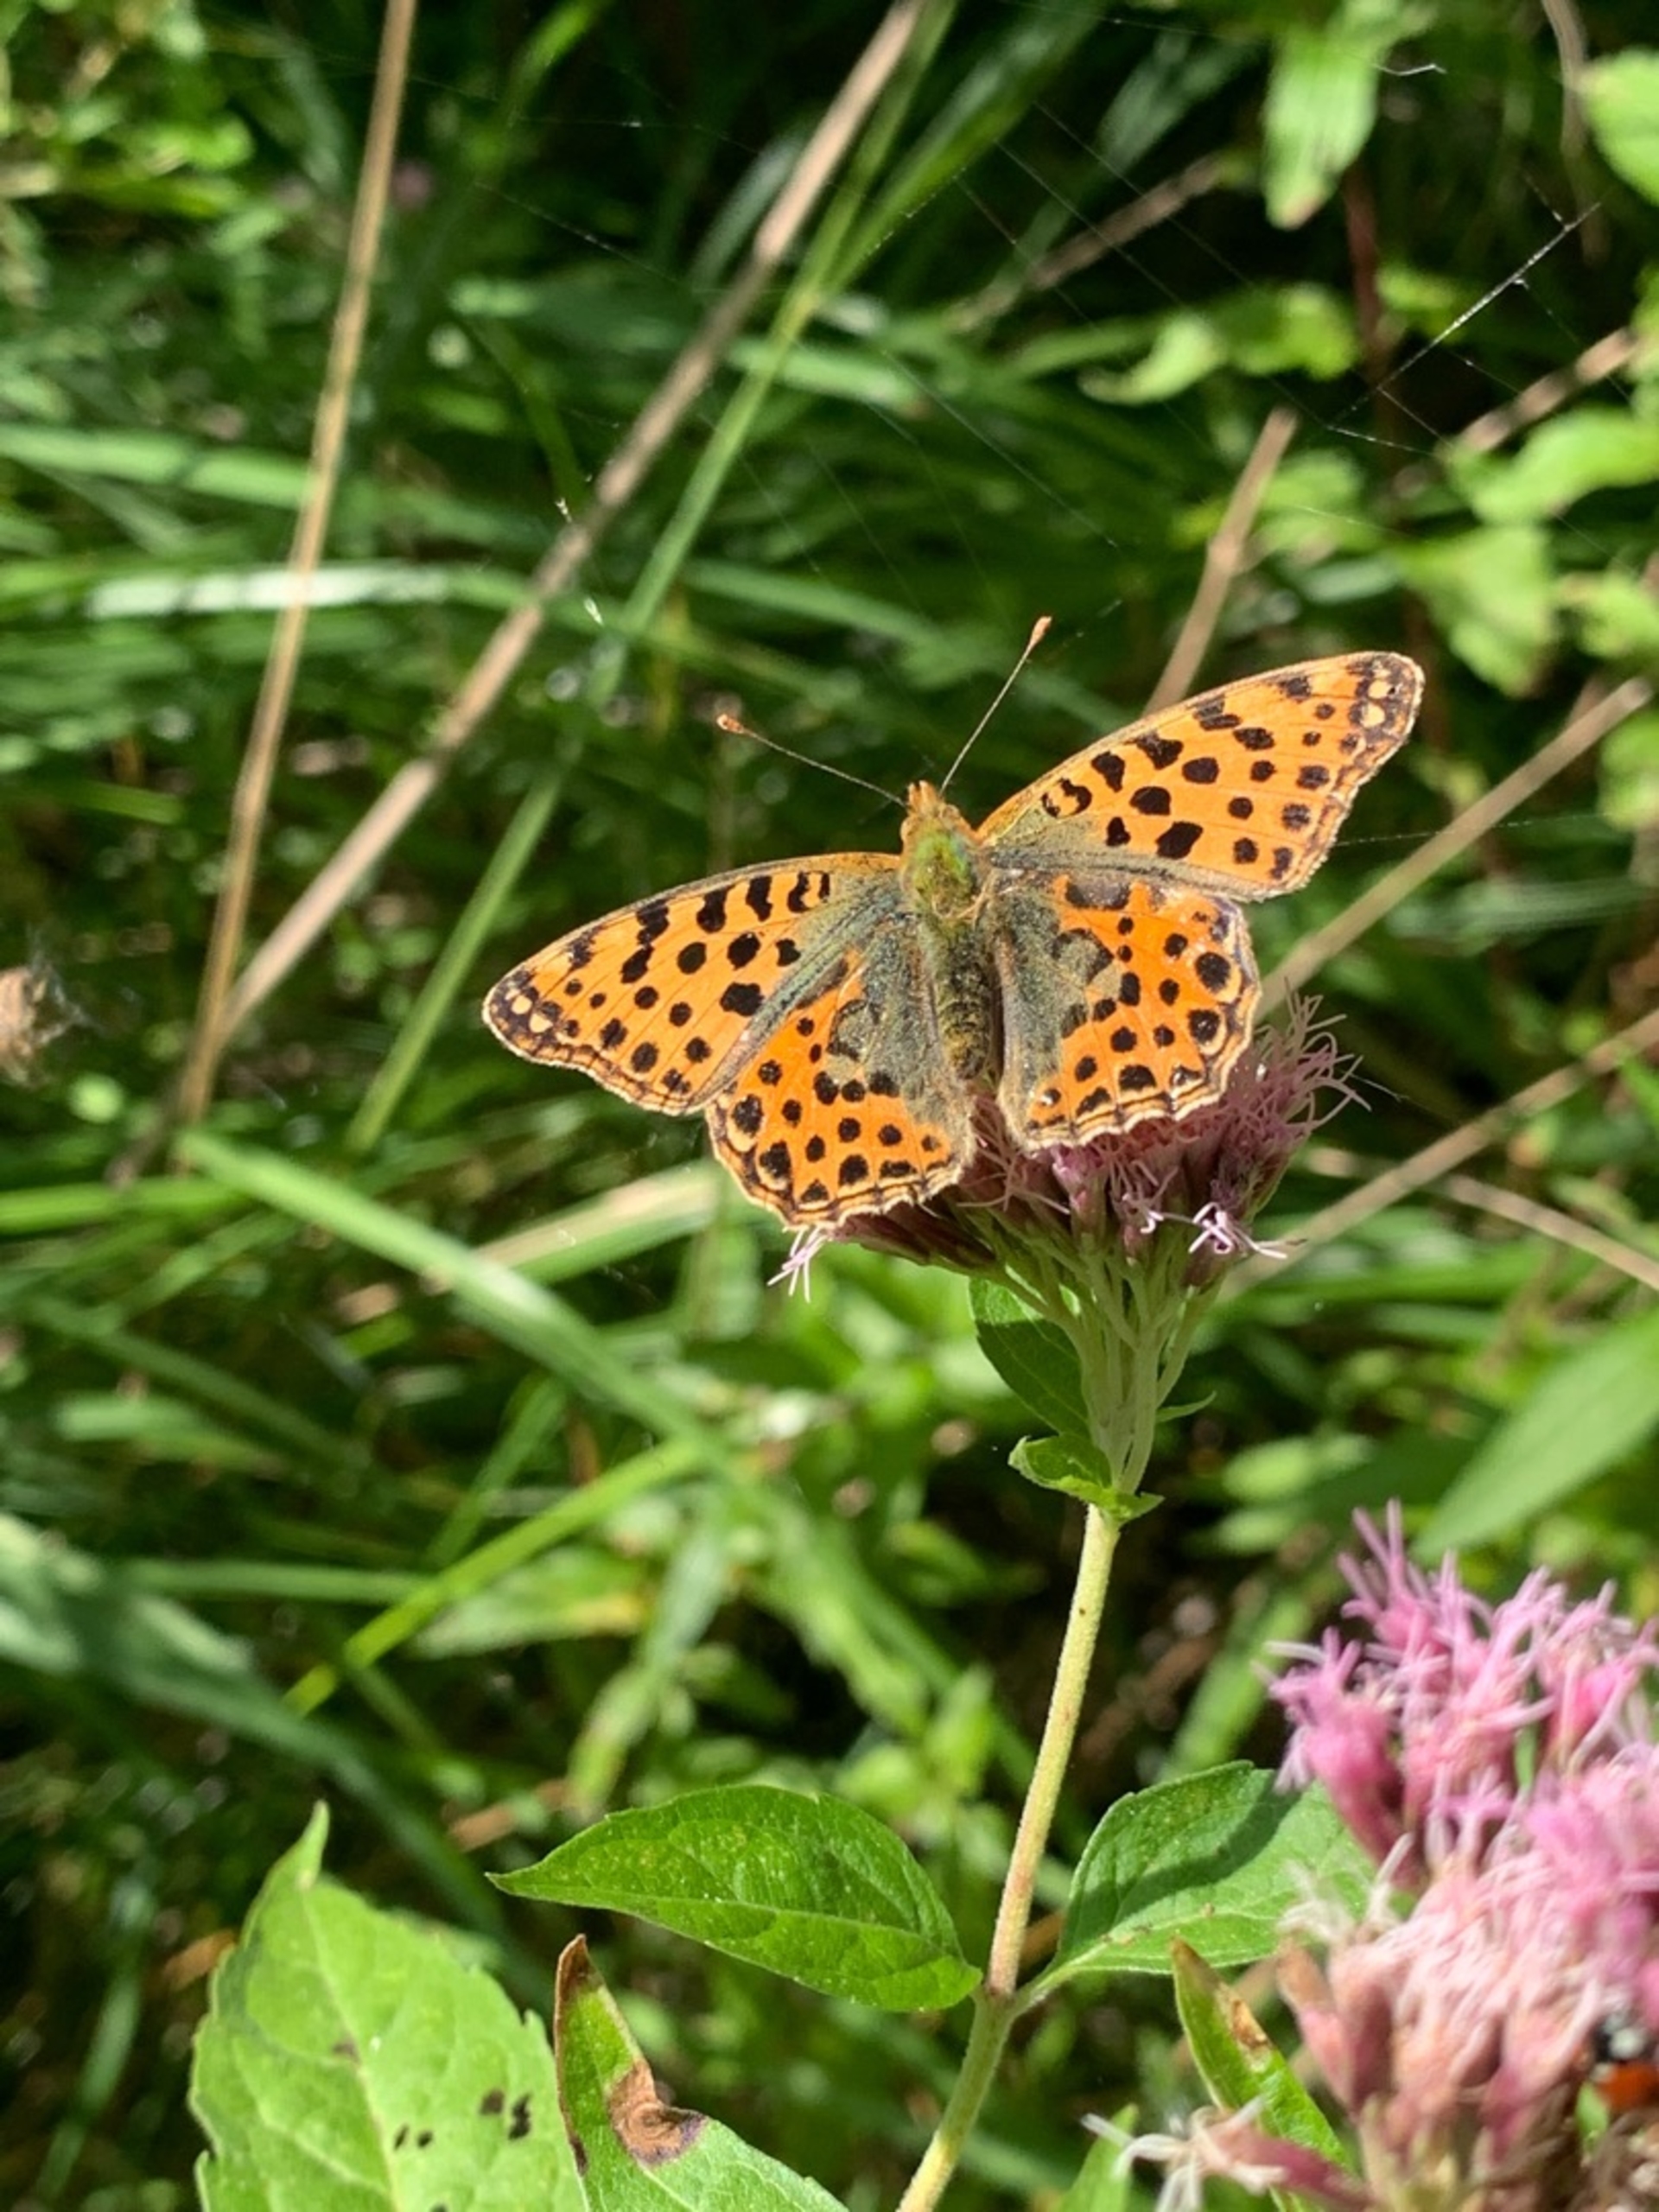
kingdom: Animalia
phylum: Arthropoda
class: Insecta
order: Lepidoptera
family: Nymphalidae
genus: Issoria
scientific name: Issoria lathonia
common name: Storplettet perlemorsommerfugl
